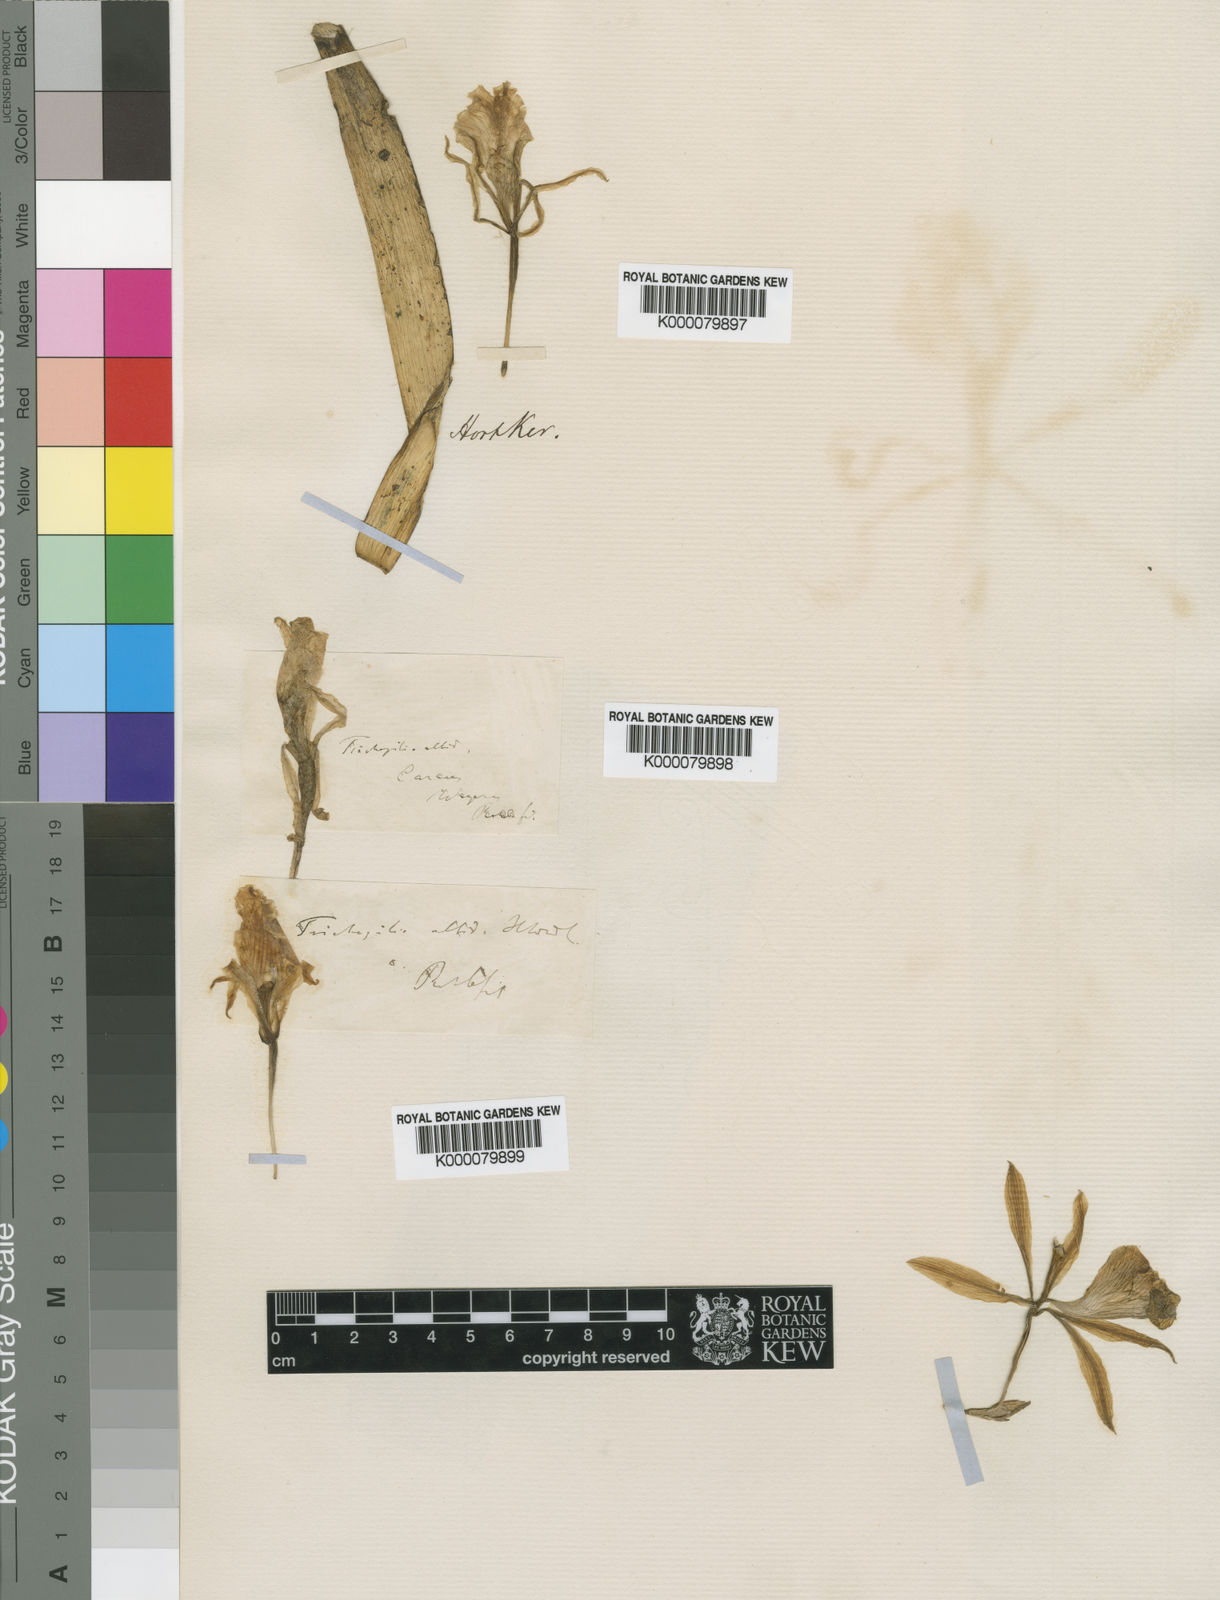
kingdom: Plantae
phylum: Tracheophyta
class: Liliopsida
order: Asparagales
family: Orchidaceae
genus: Trichopilia
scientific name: Trichopilia
